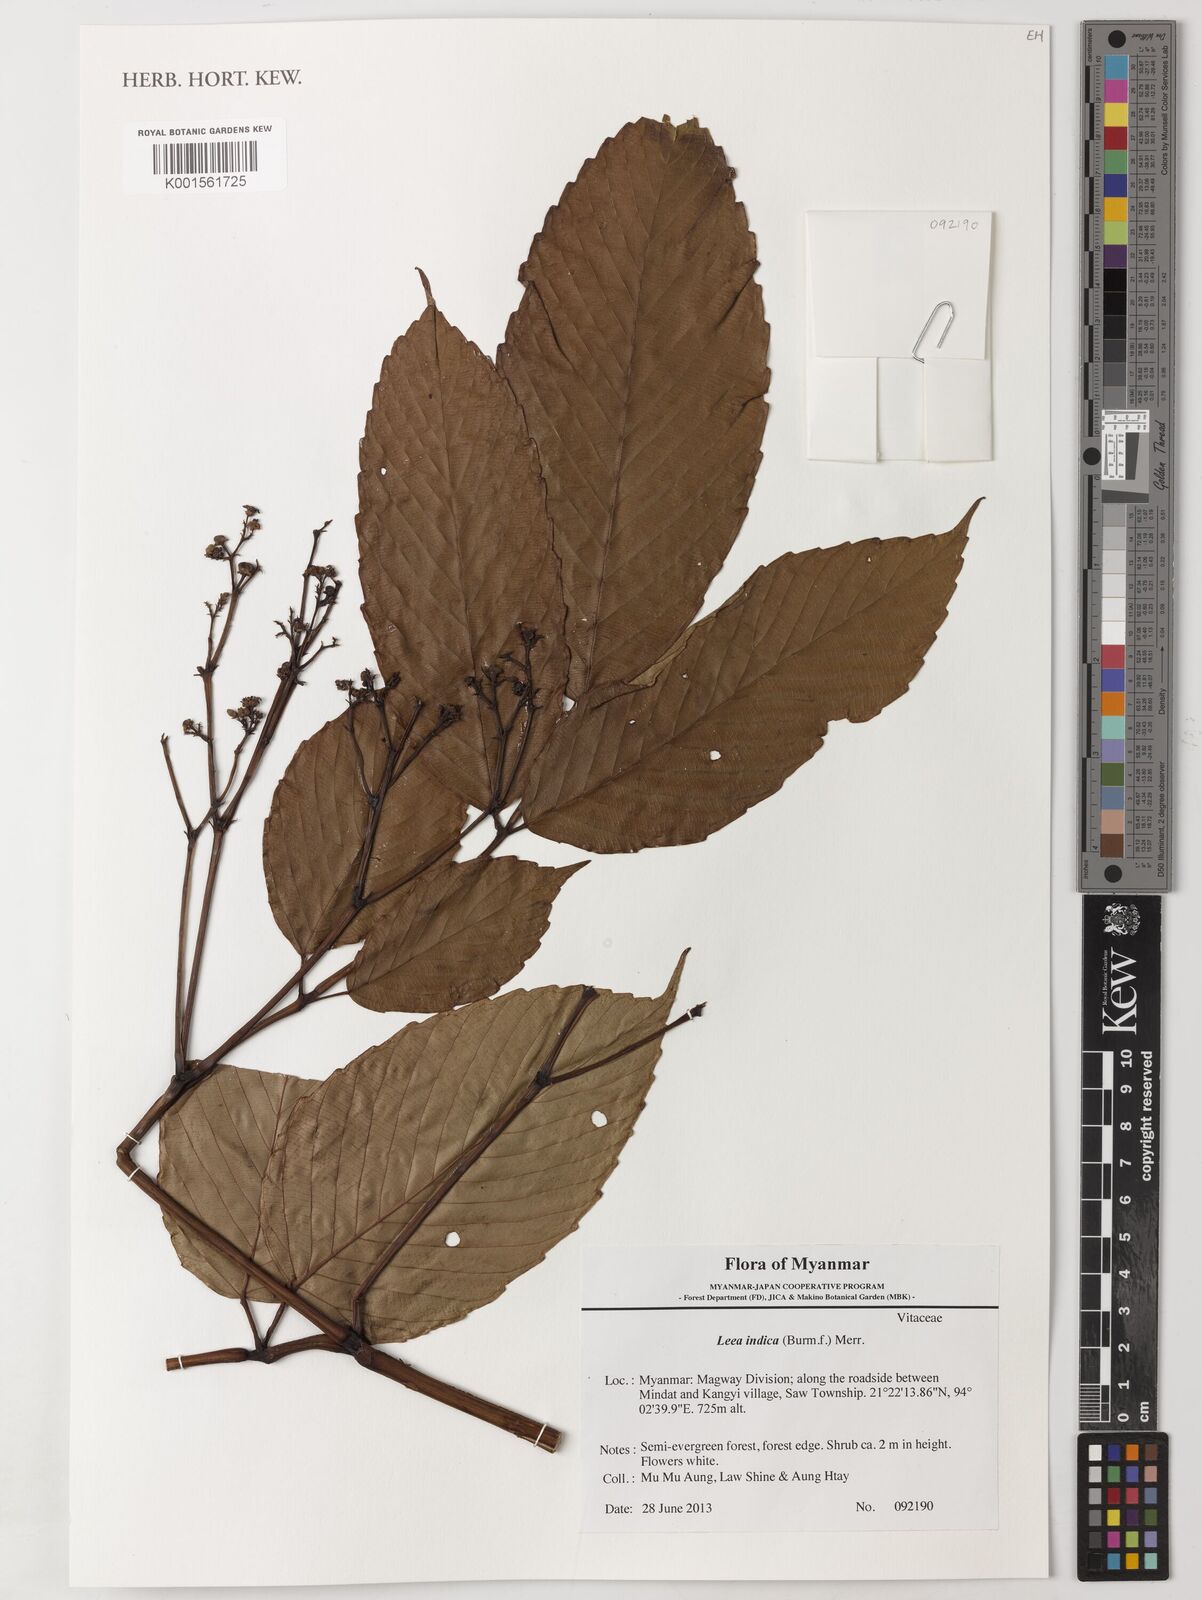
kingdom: Plantae
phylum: Tracheophyta
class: Magnoliopsida
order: Vitales
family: Vitaceae
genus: Leea
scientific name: Leea indica
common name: Bandicoot-berry
